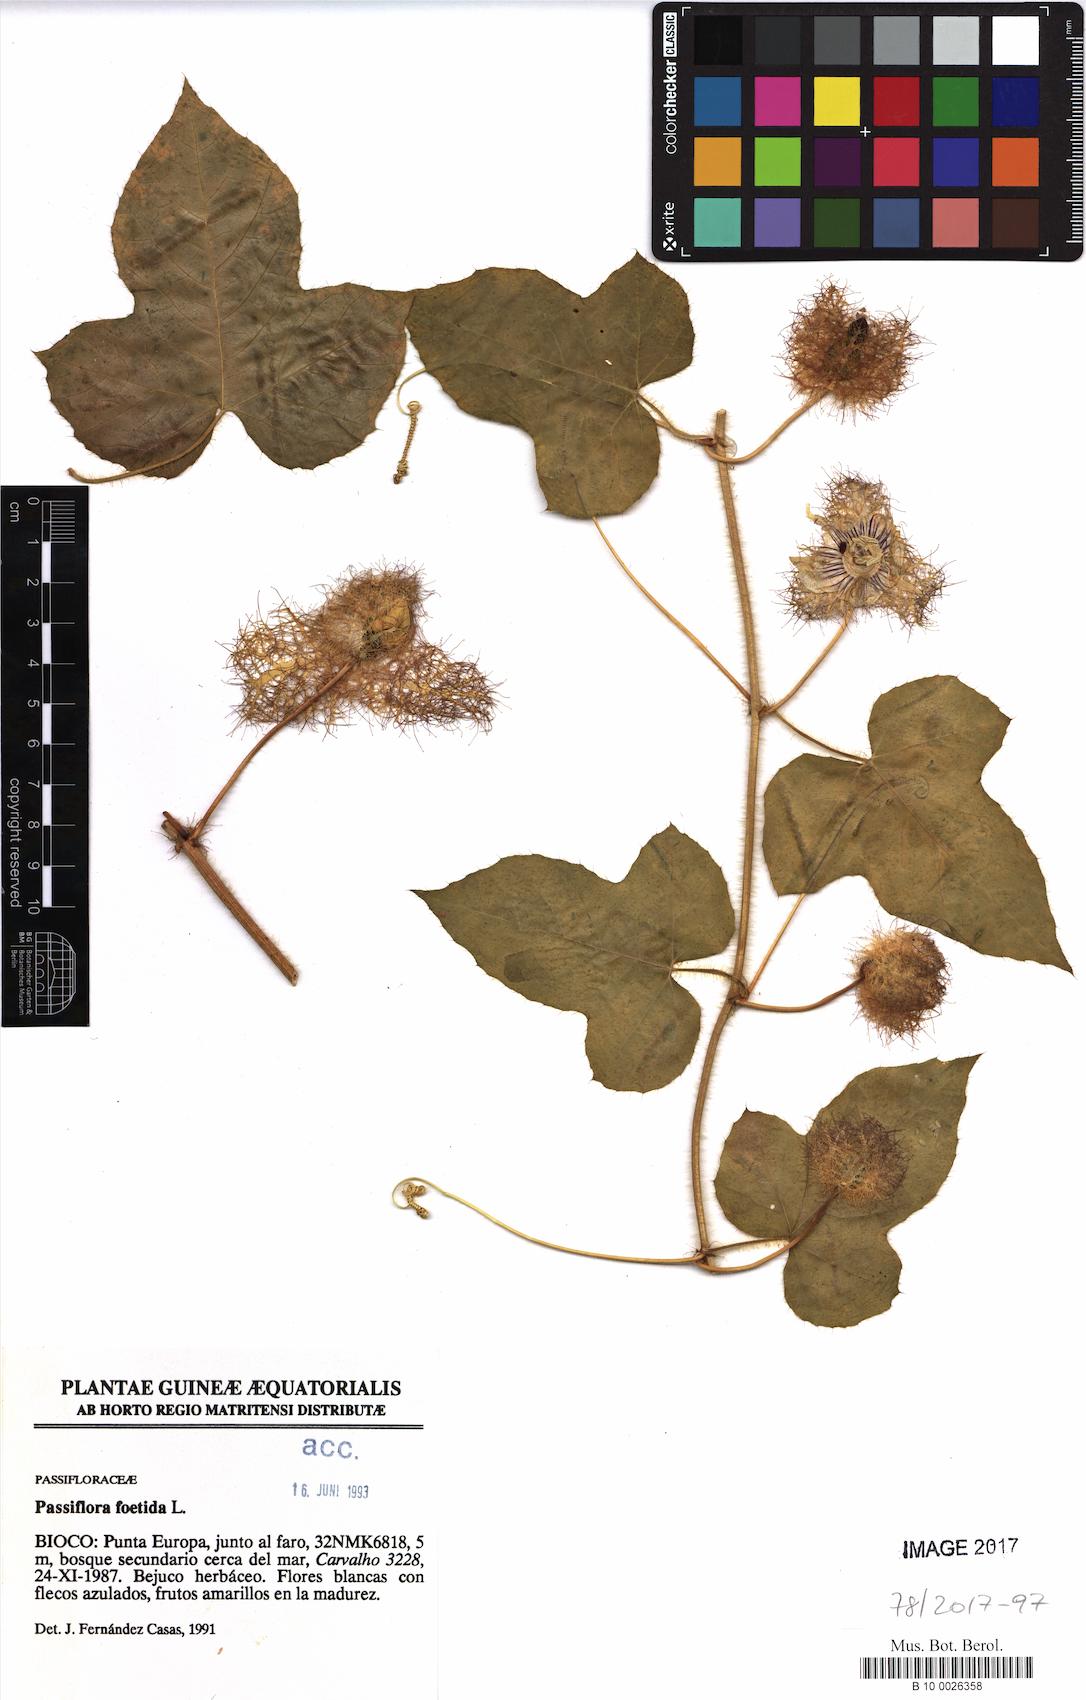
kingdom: Plantae
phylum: Tracheophyta
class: Magnoliopsida
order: Malpighiales
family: Passifloraceae
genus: Passiflora
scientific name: Passiflora foetida
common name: Fetid passionflower
